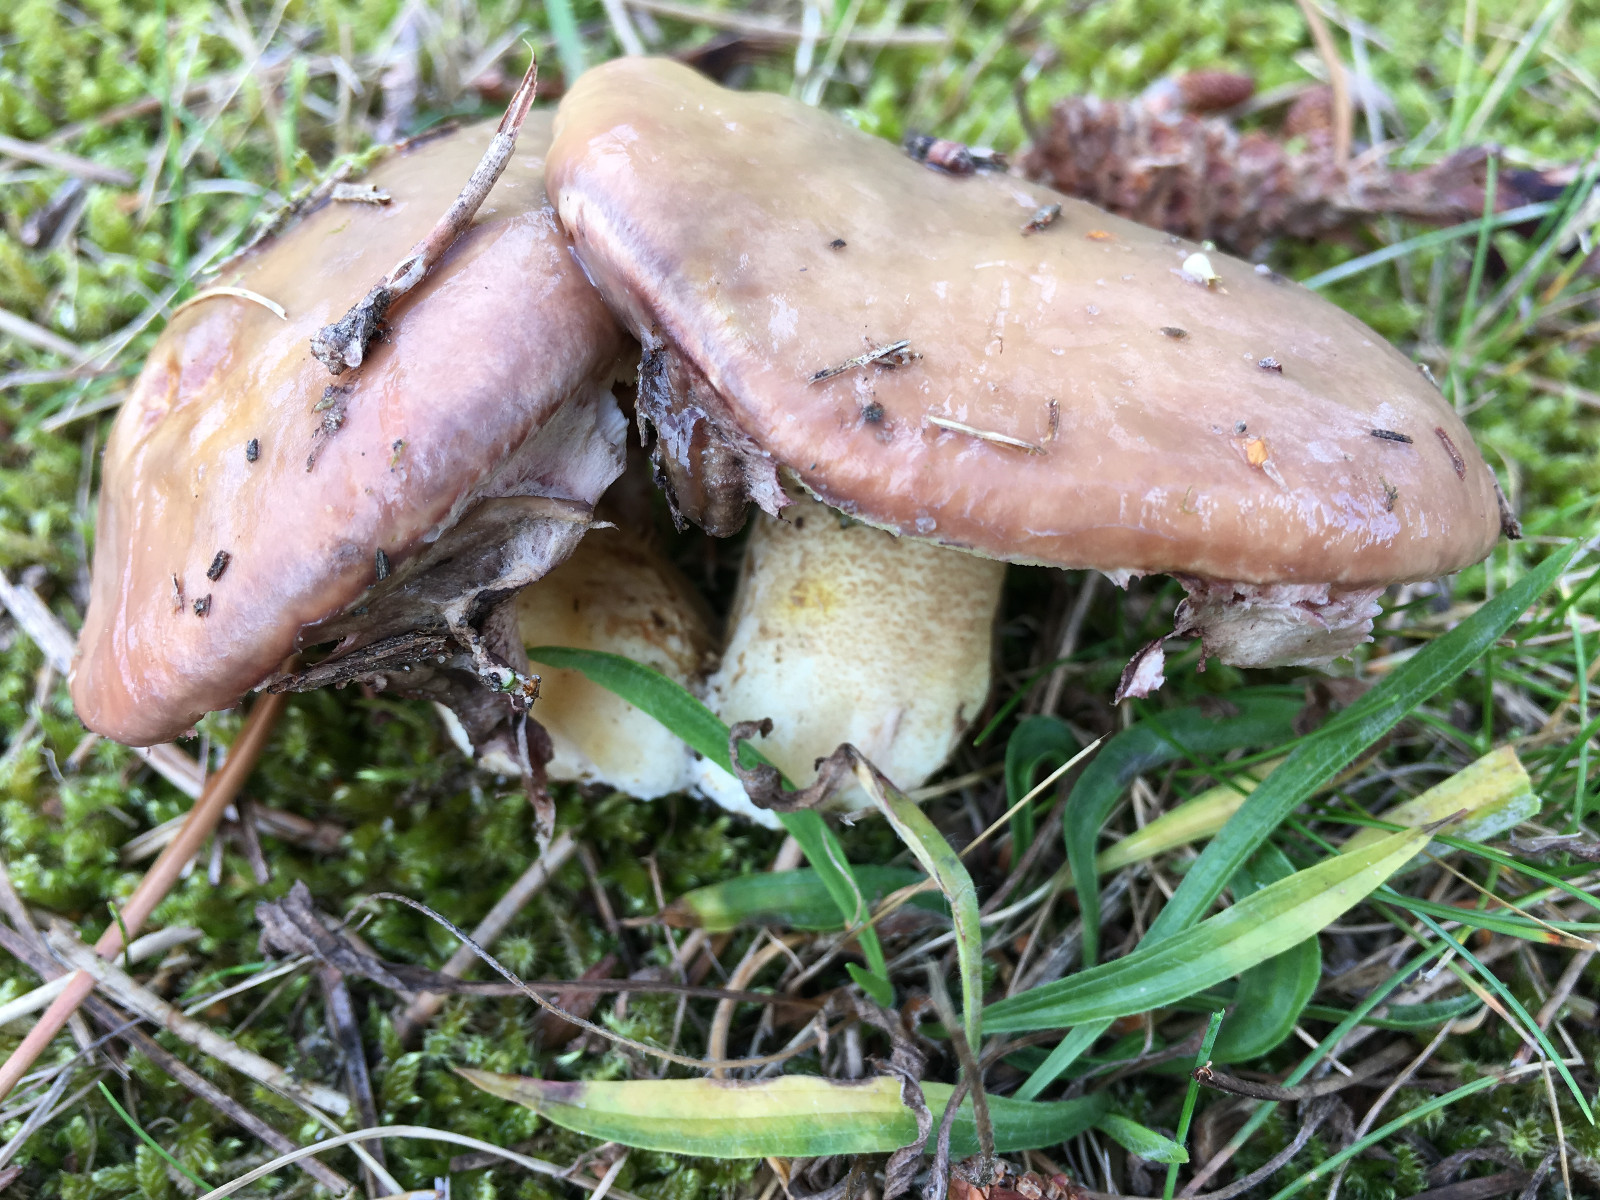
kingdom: Fungi
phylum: Basidiomycota
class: Agaricomycetes
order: Boletales
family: Suillaceae
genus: Suillus
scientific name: Suillus luteus
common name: brungul slimrørhat
